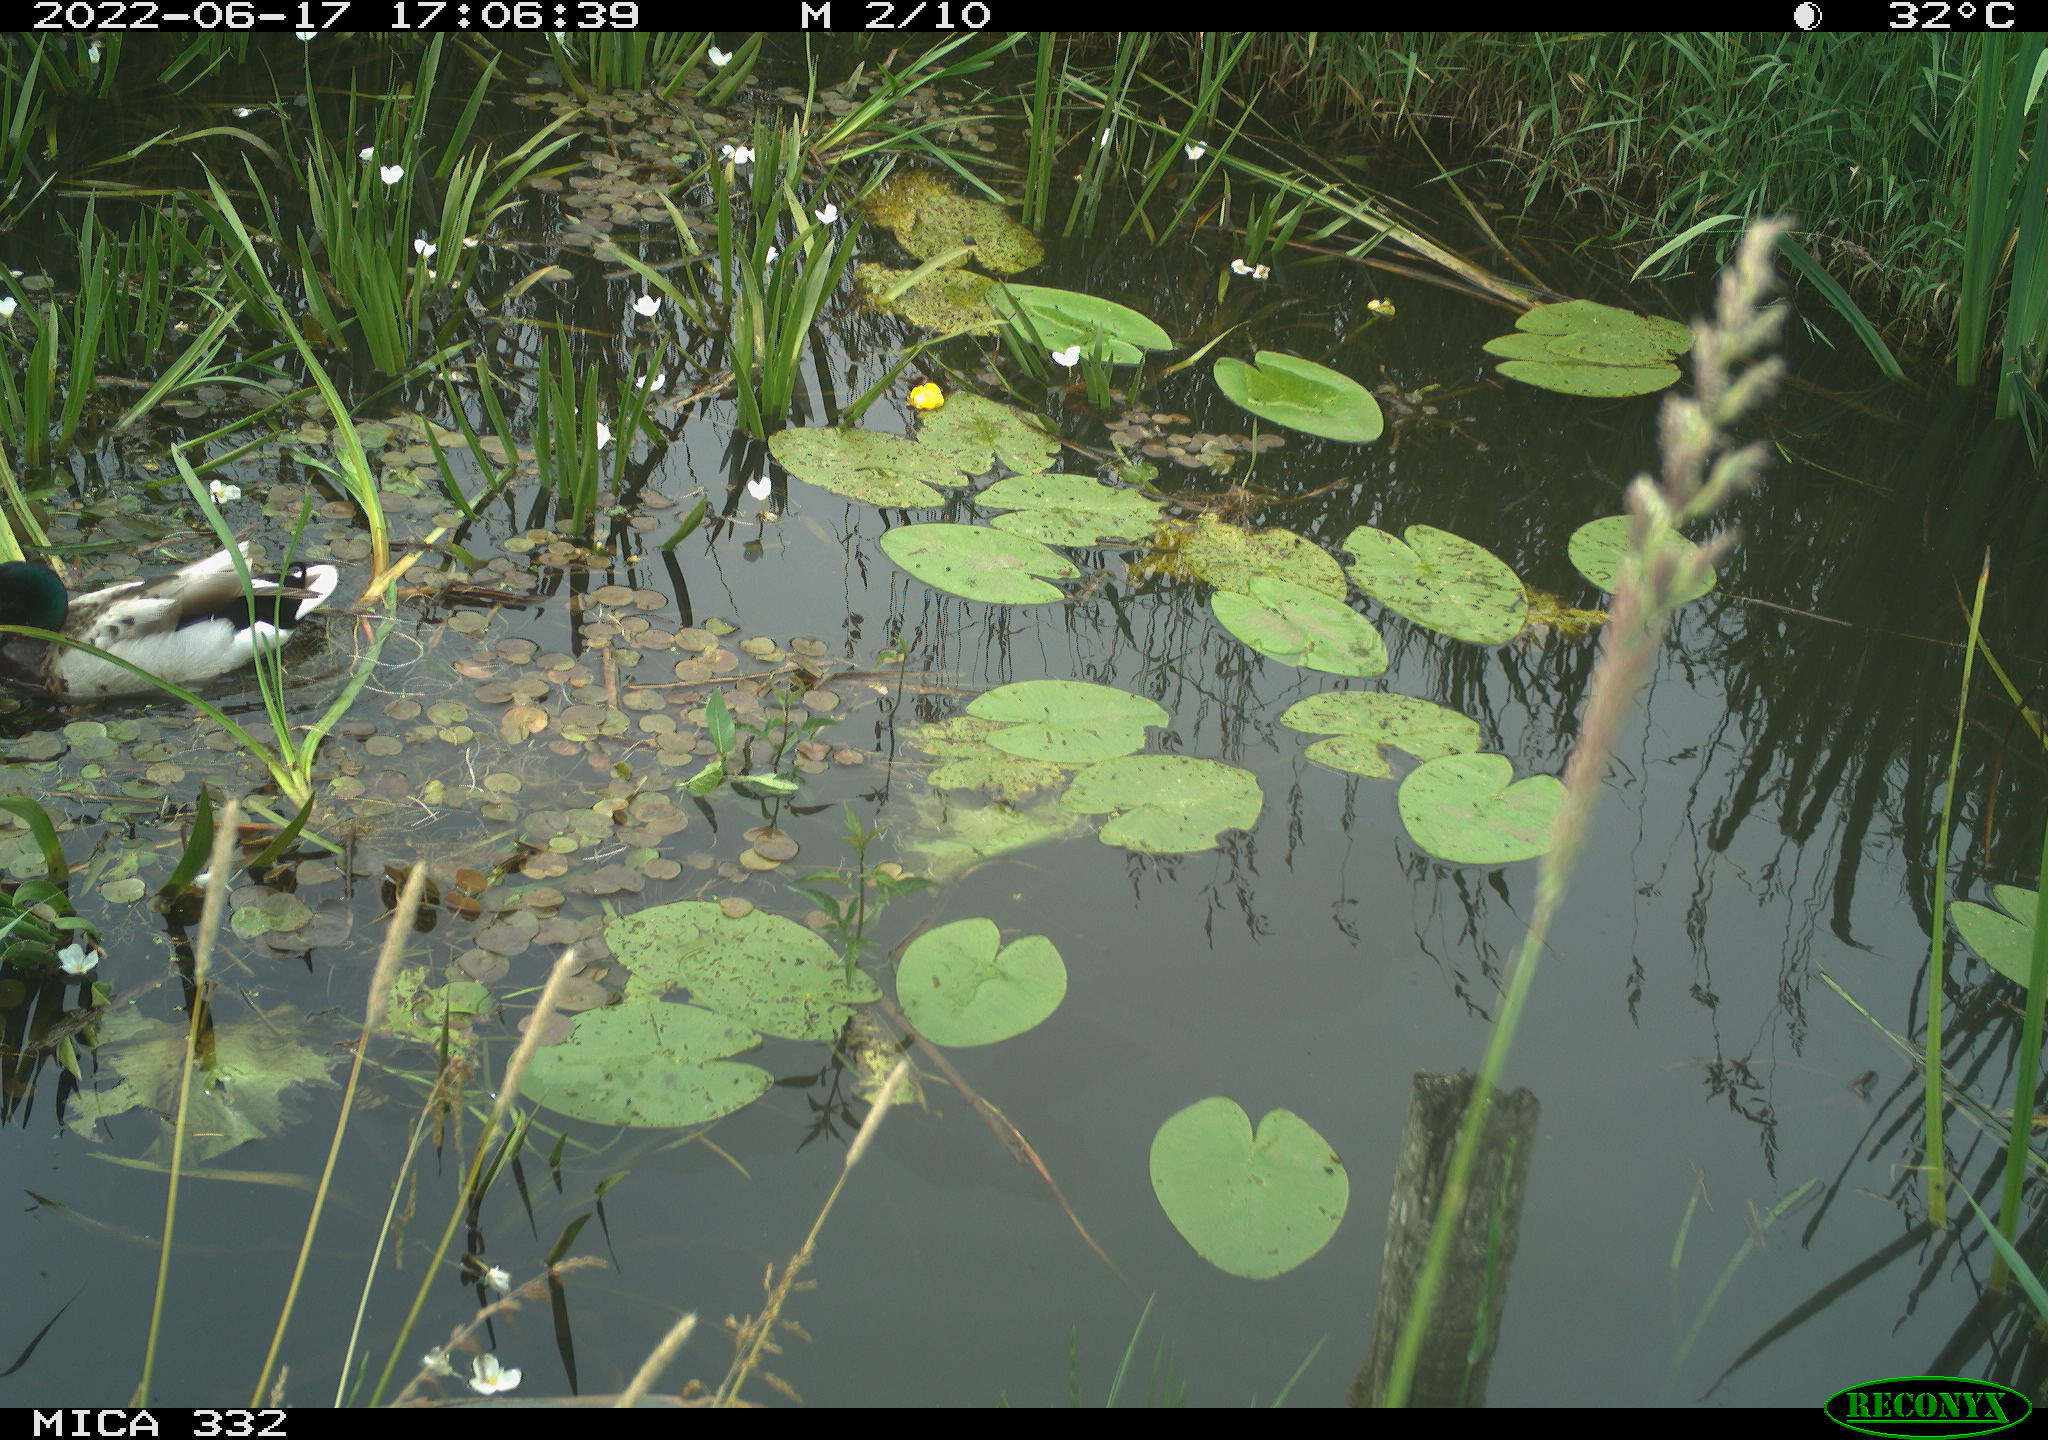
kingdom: Animalia
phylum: Chordata
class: Aves
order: Anseriformes
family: Anatidae
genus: Anas
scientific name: Anas platyrhynchos
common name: Mallard
